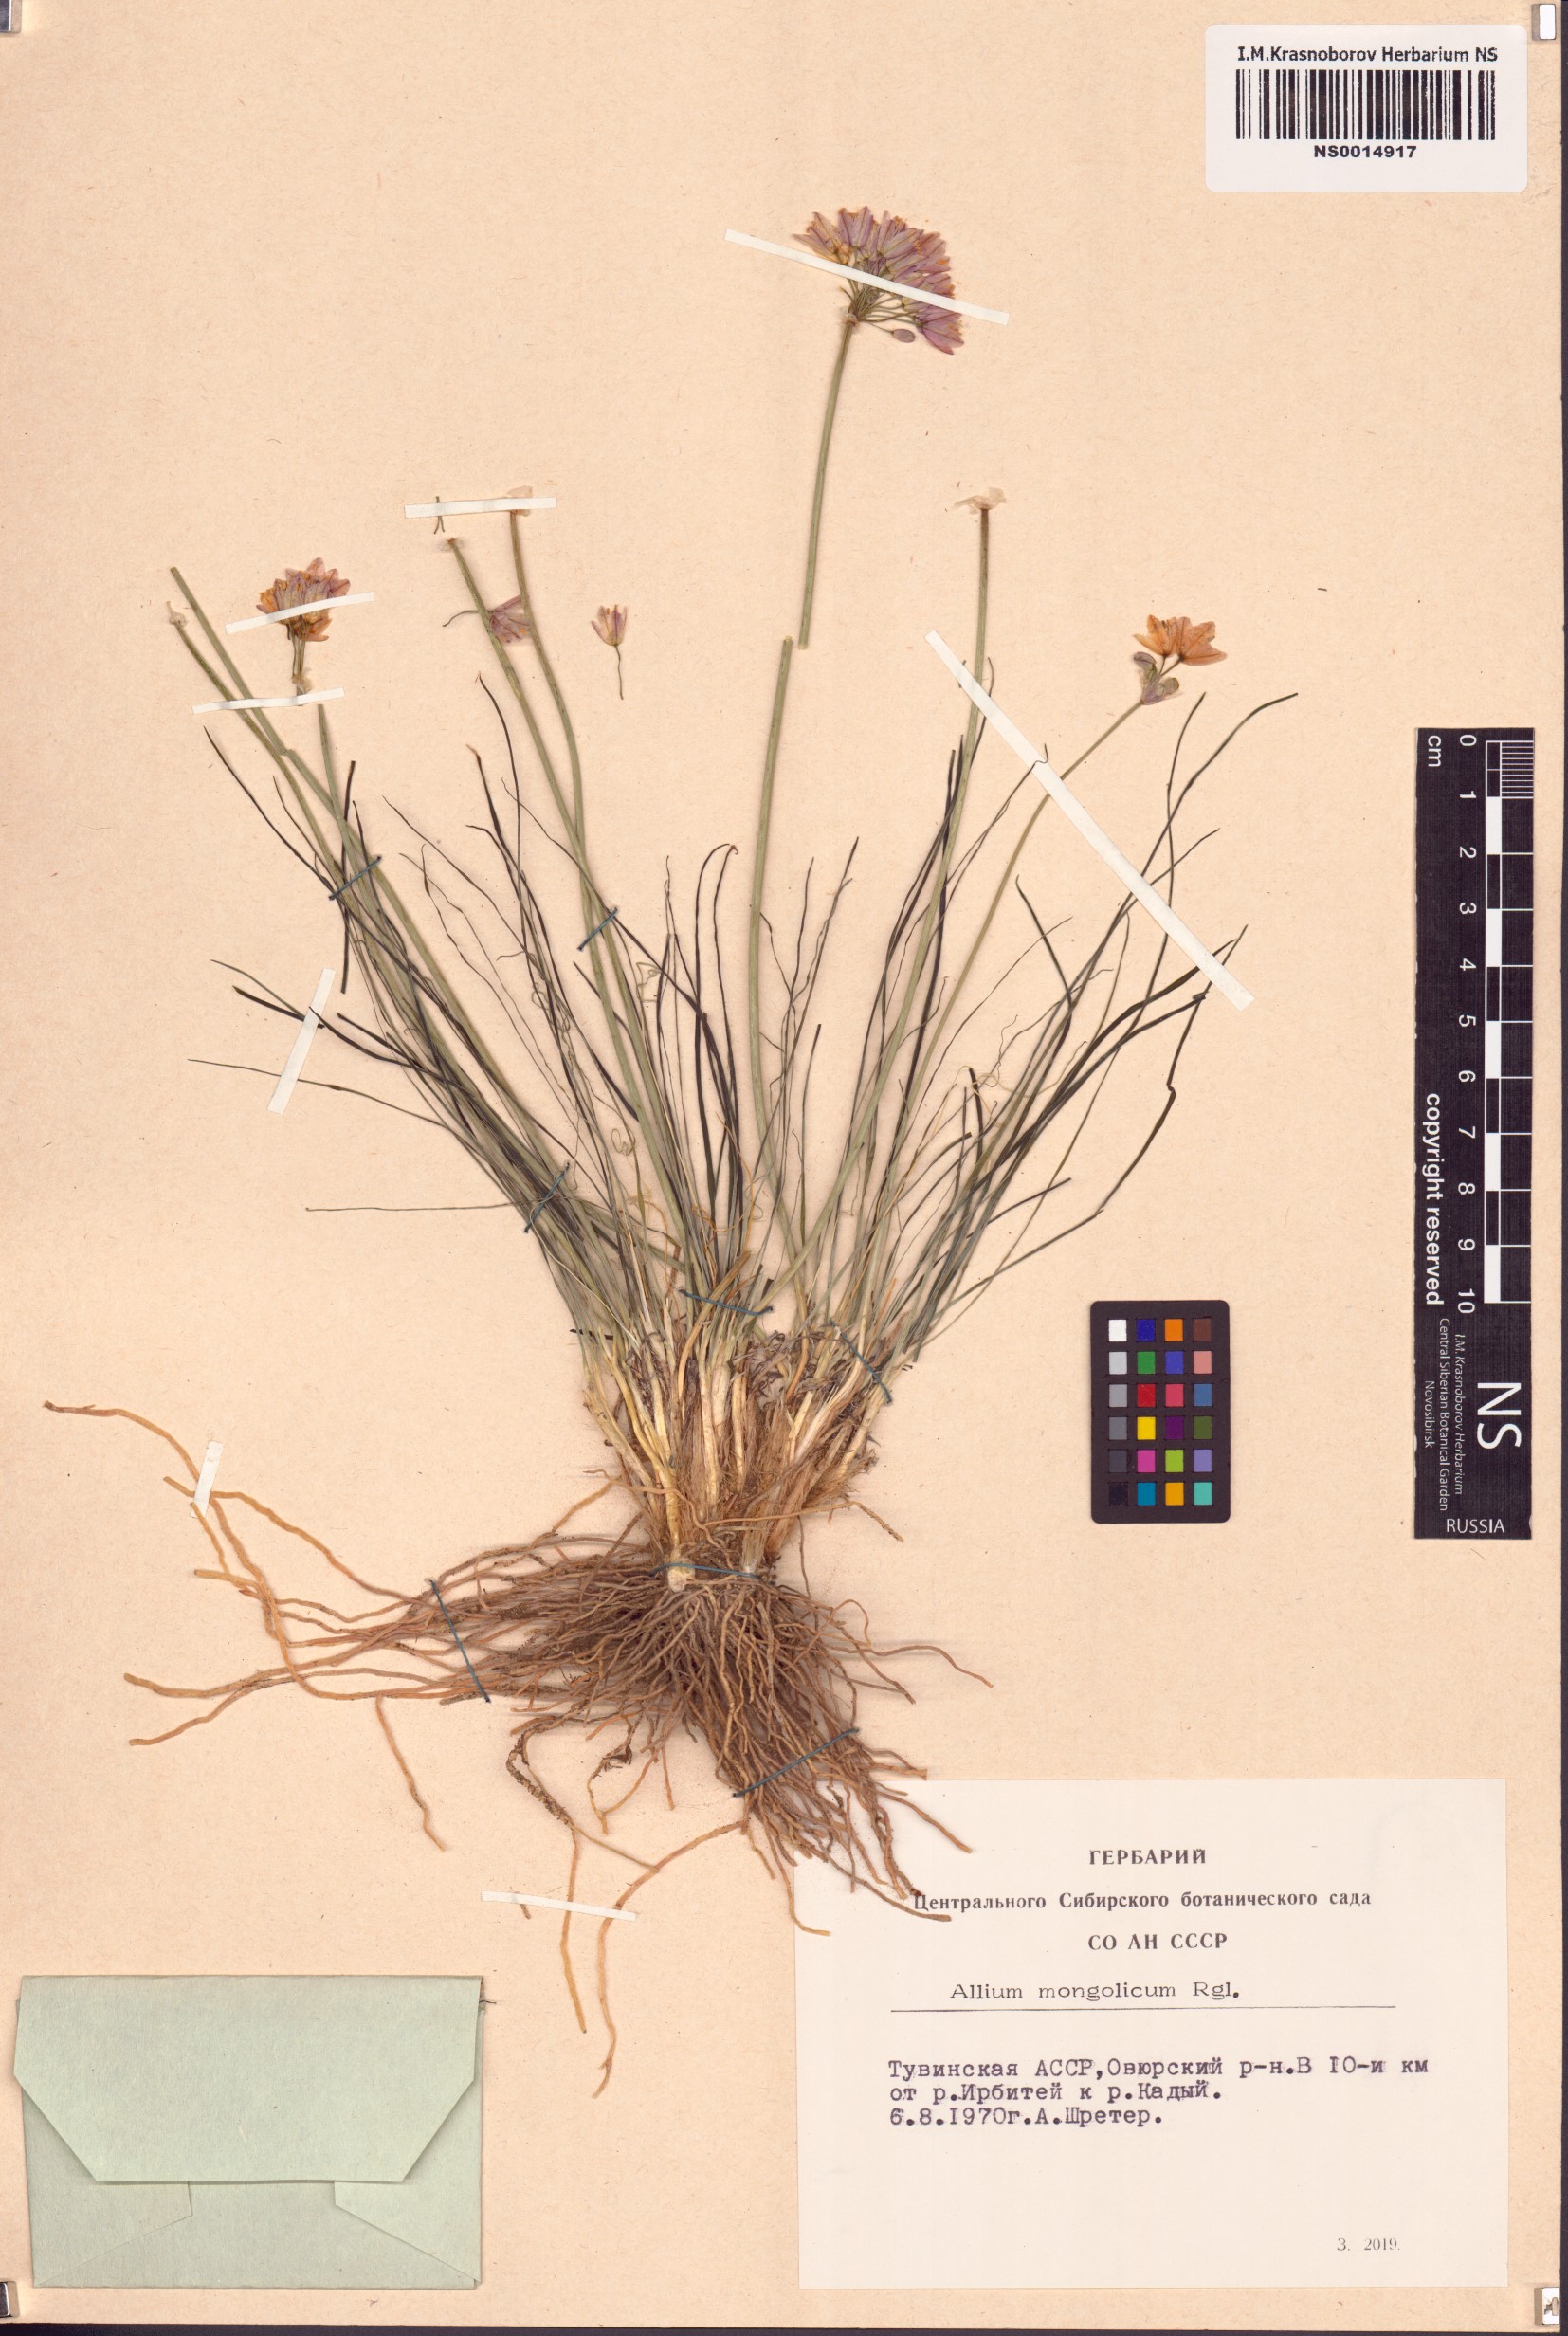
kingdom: Plantae
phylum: Tracheophyta
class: Liliopsida
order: Asparagales
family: Amaryllidaceae
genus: Allium
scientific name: Allium mongolicum
